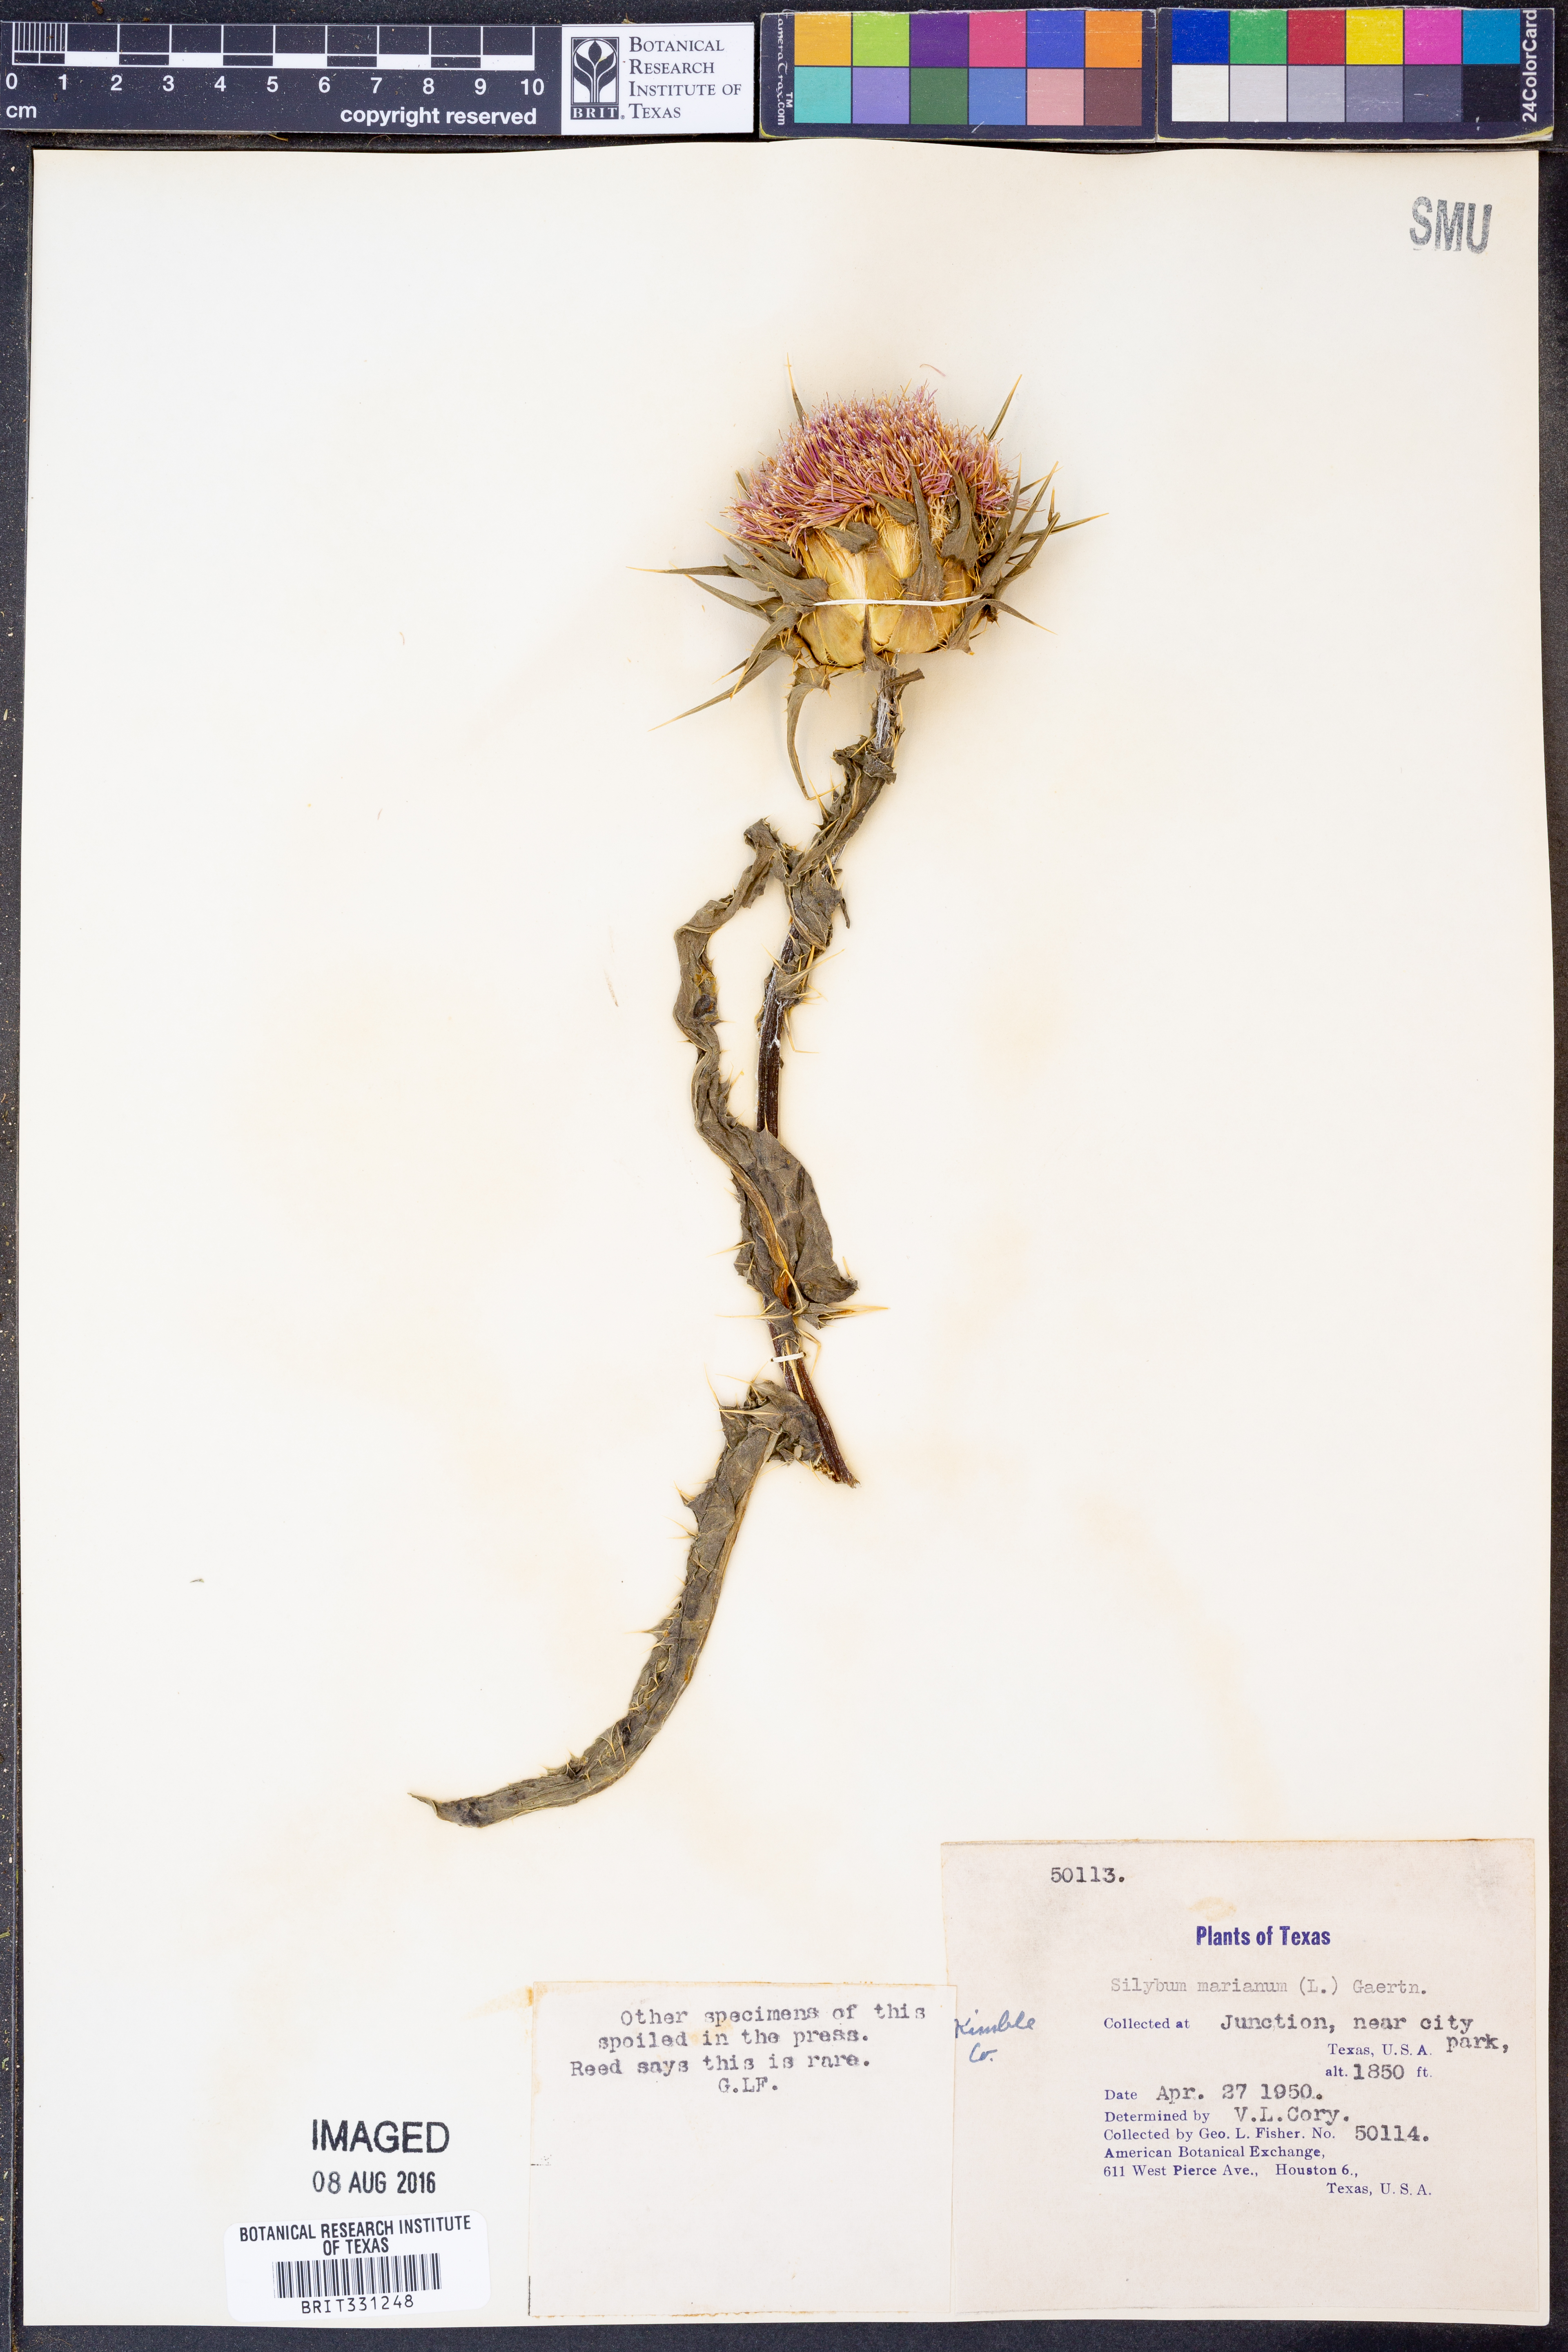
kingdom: Plantae
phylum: Tracheophyta
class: Magnoliopsida
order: Asterales
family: Asteraceae
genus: Silybum
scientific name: Silybum marianum
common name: Milk thistle
